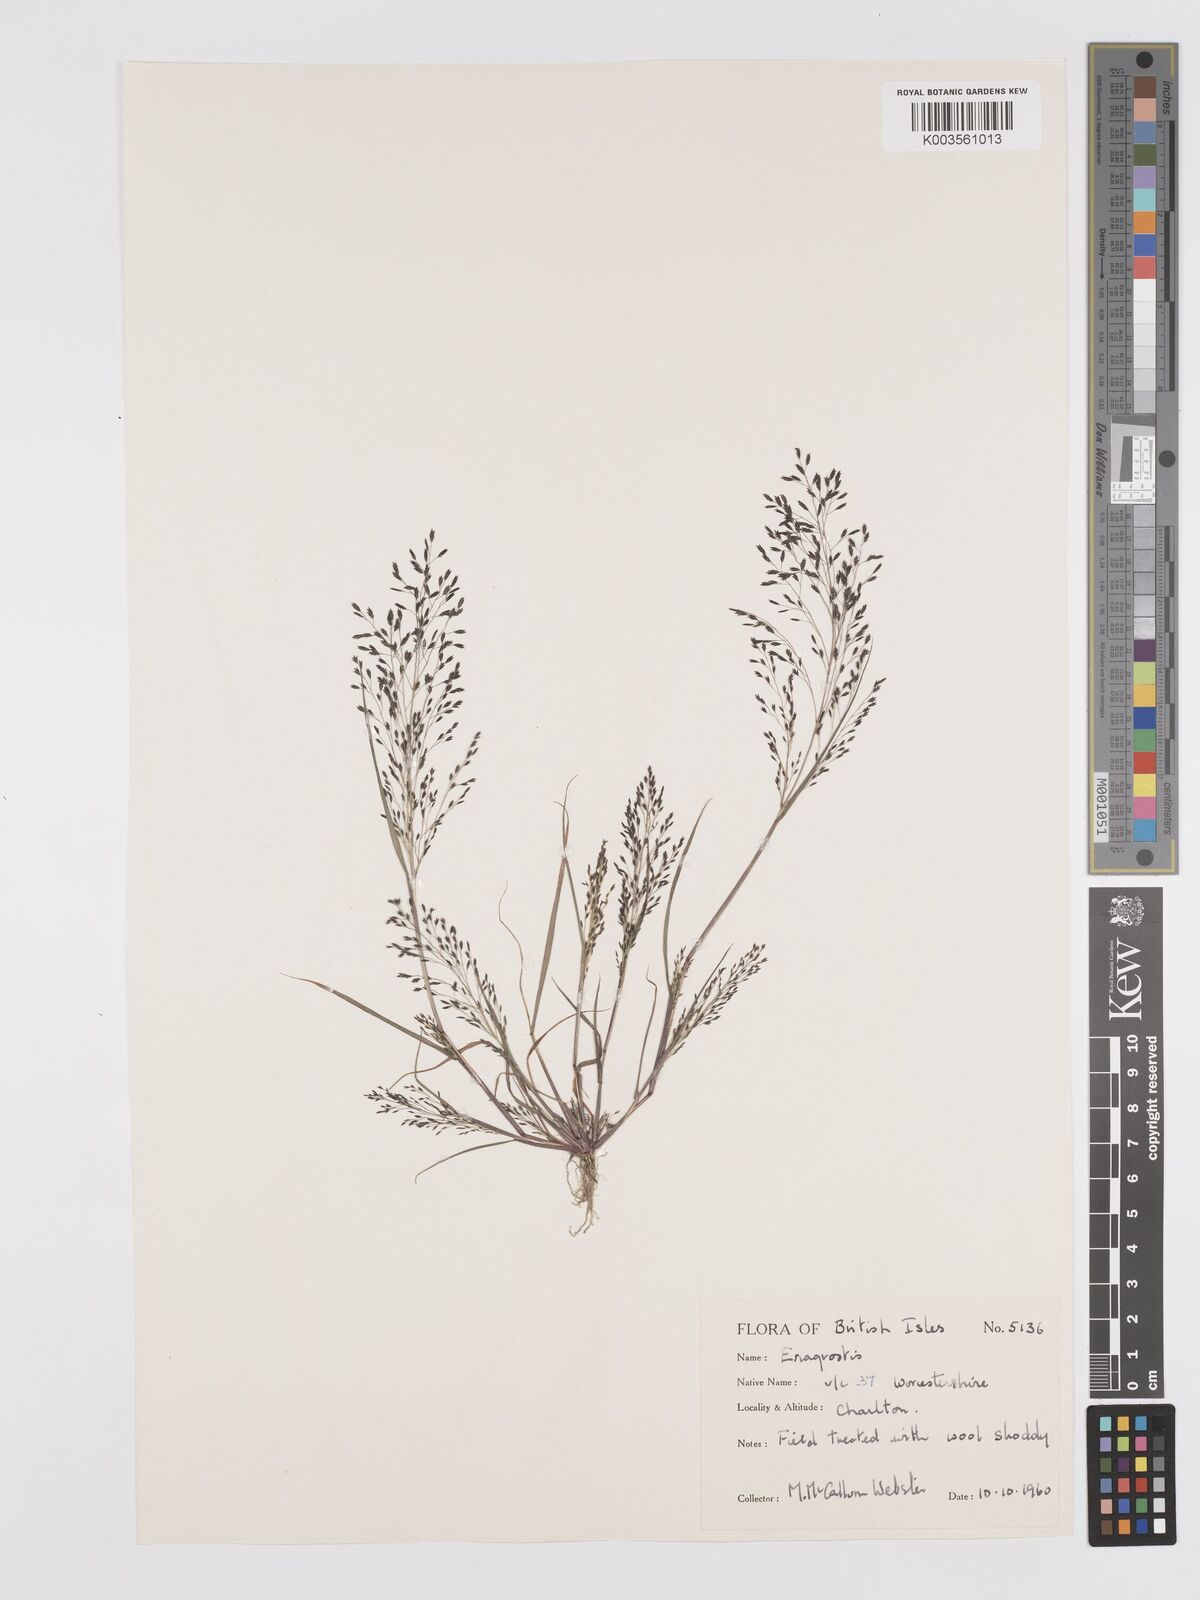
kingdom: Plantae
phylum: Tracheophyta
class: Liliopsida
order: Poales
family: Poaceae
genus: Eragrostis
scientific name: Eragrostis
